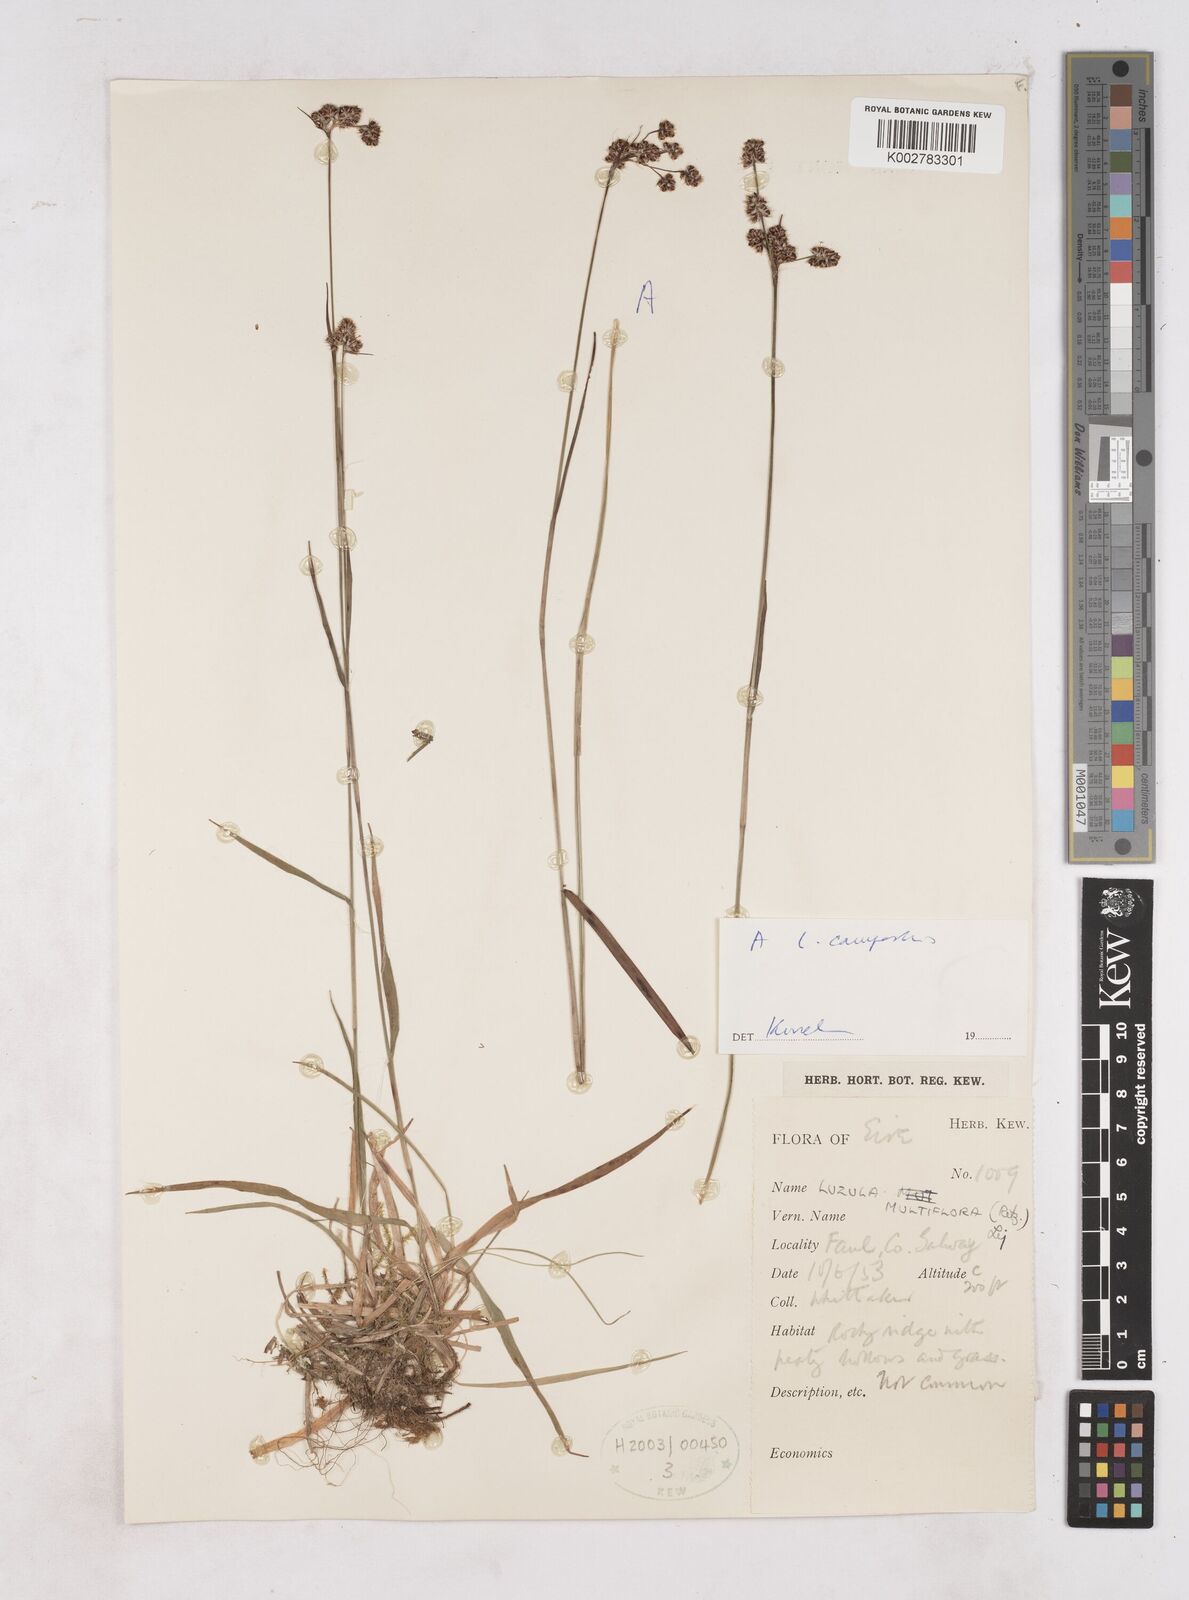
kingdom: Plantae
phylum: Tracheophyta
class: Liliopsida
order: Poales
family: Juncaceae
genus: Luzula
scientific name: Luzula multiflora
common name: Heath wood-rush
